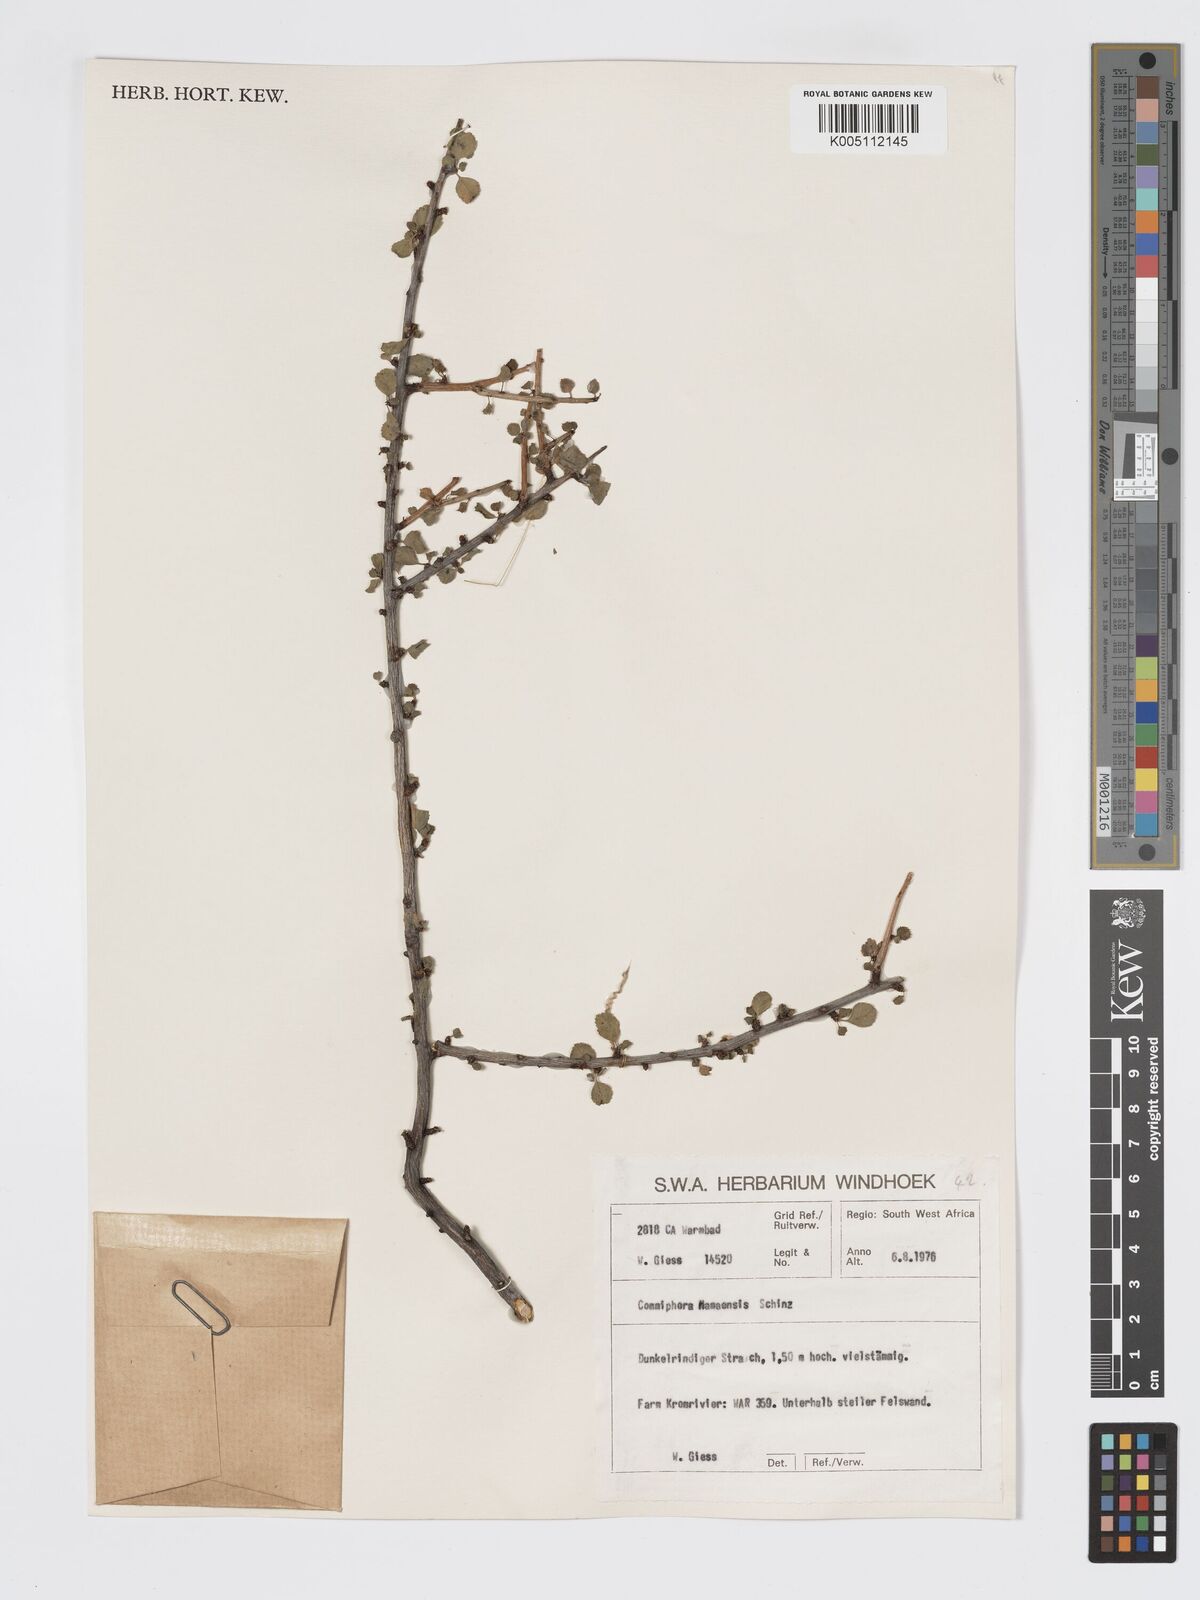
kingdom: Plantae
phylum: Tracheophyta
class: Magnoliopsida
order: Sapindales
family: Burseraceae
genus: Commiphora
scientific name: Commiphora namaensis
